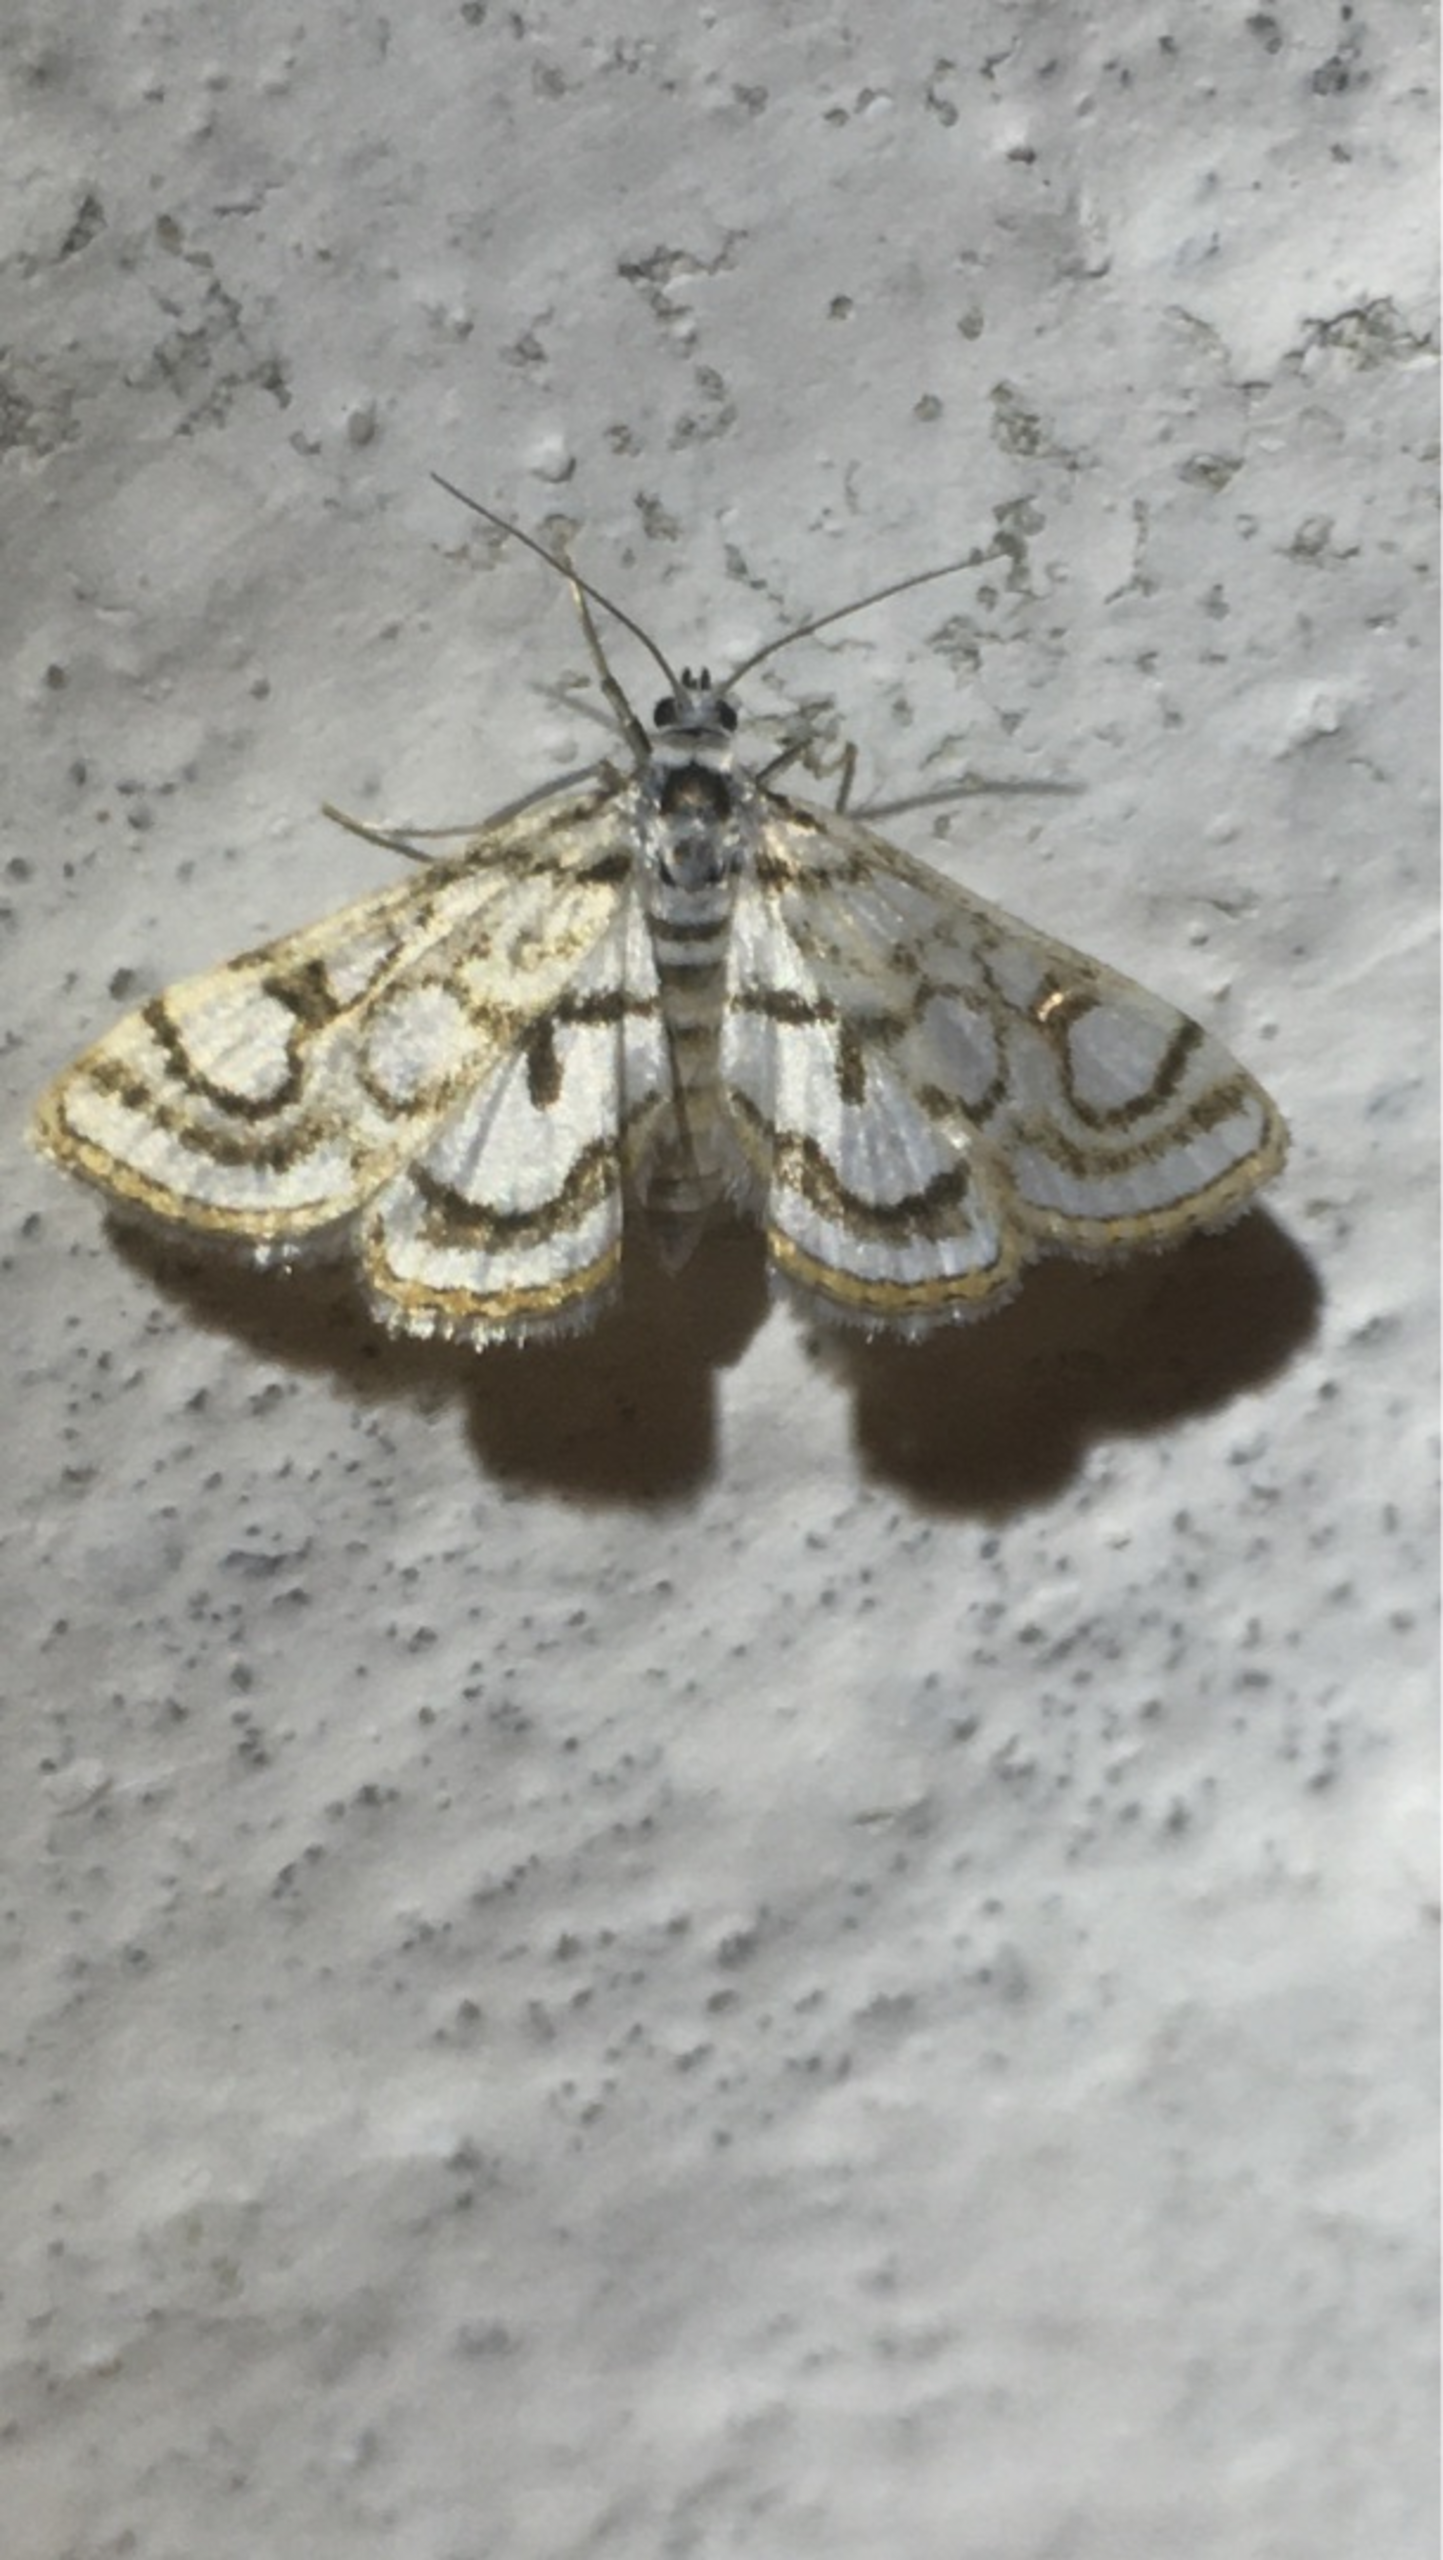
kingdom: Animalia
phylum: Arthropoda
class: Insecta
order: Lepidoptera
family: Crambidae
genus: Nymphula
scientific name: Nymphula nitidulata
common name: Lille porcelænsmøl
